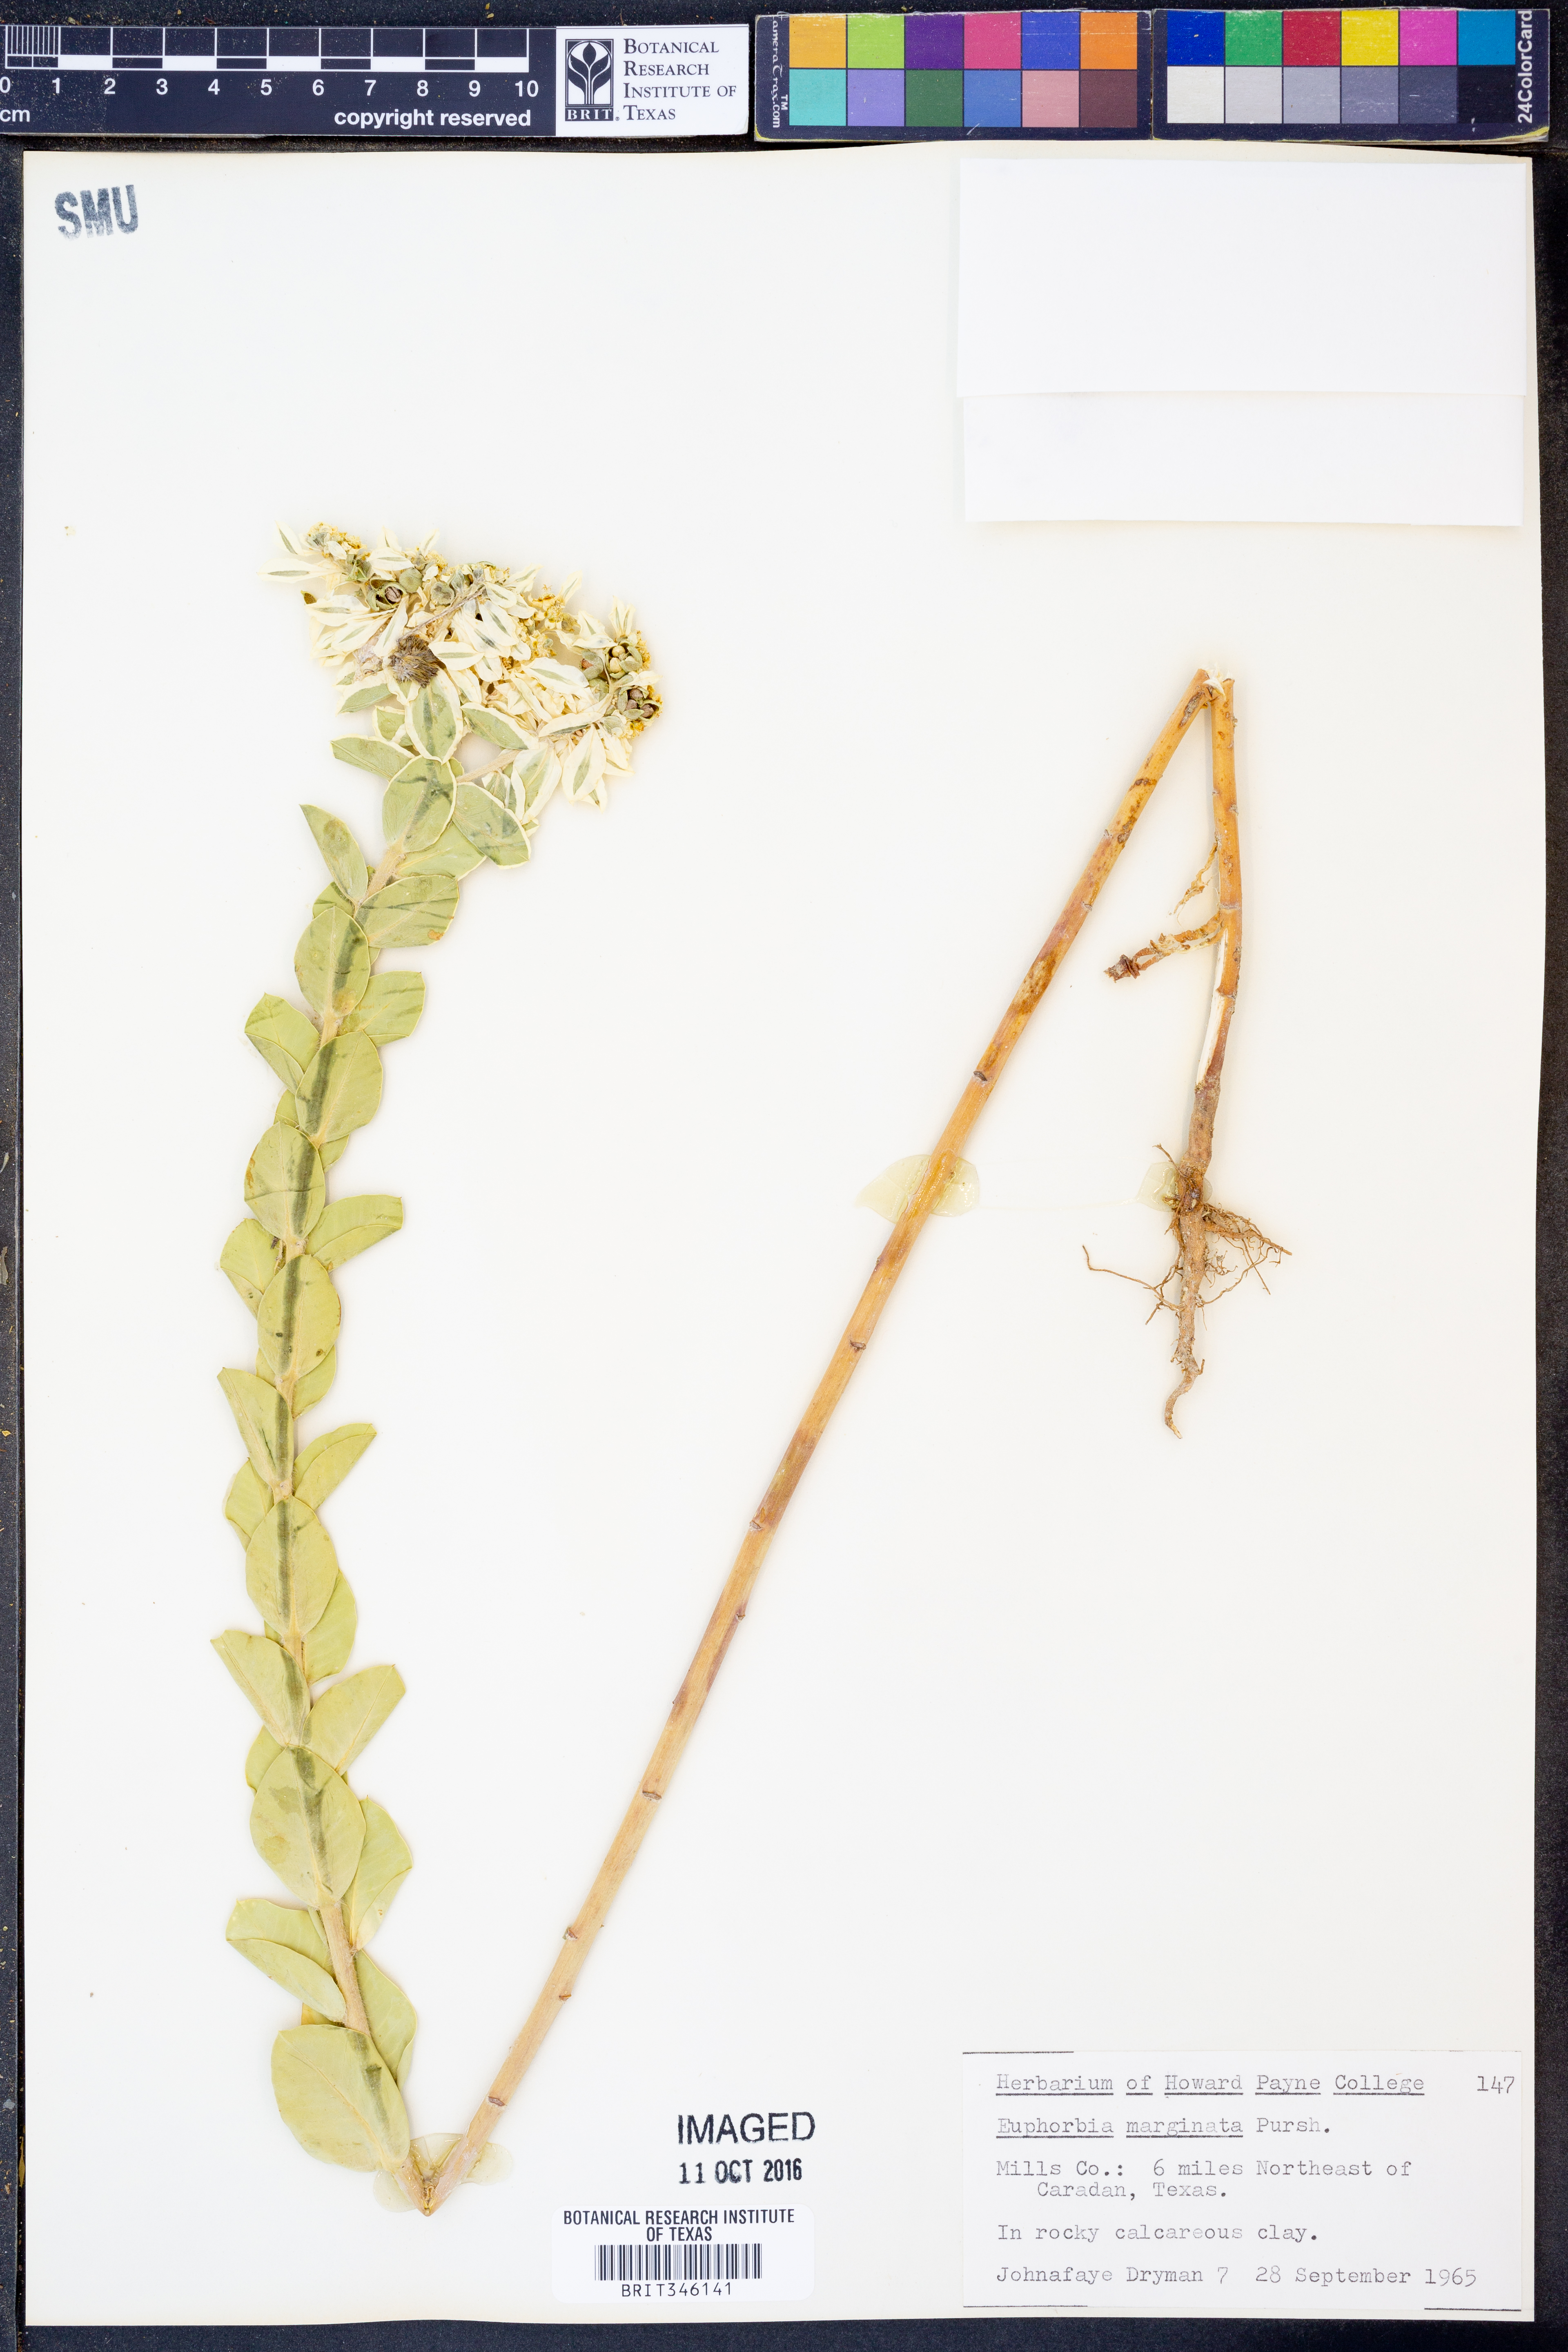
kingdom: Plantae
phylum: Tracheophyta
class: Magnoliopsida
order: Malpighiales
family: Euphorbiaceae
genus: Euphorbia
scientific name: Euphorbia marginata
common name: Ghostweed
